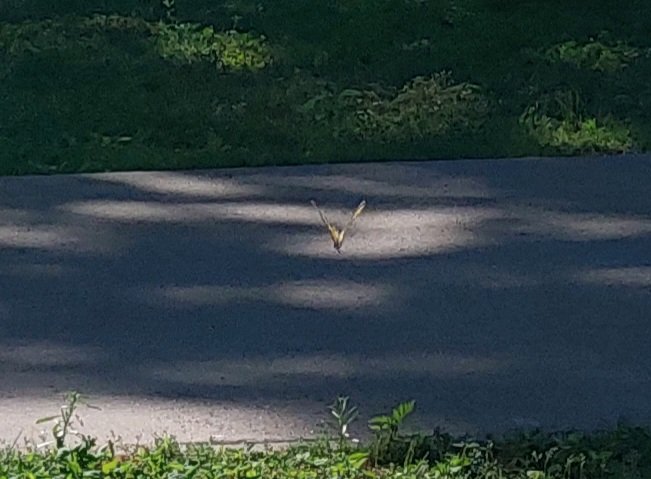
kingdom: Animalia
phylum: Arthropoda
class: Insecta
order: Lepidoptera
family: Papilionidae
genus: Pterourus
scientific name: Pterourus canadensis
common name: Canadian Tiger Swallowtail
